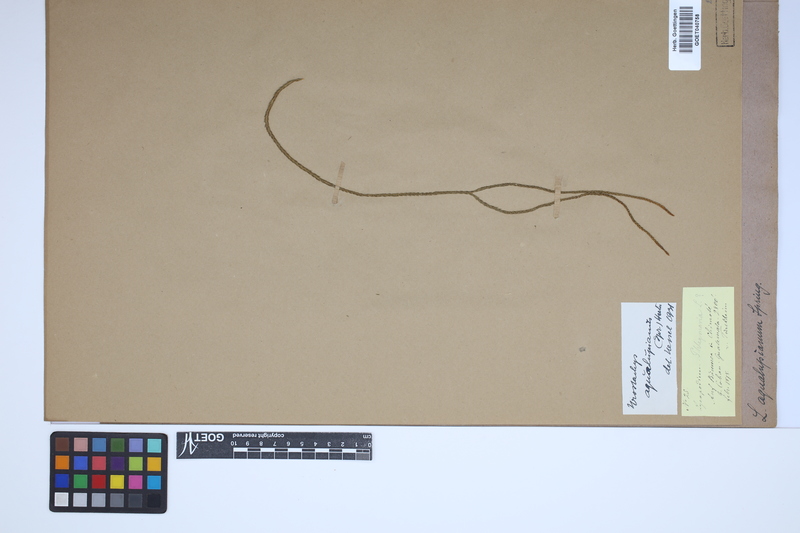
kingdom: Plantae
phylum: Tracheophyta
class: Lycopodiopsida
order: Lycopodiales
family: Lycopodiaceae
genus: Phlegmariurus
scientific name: Phlegmariurus aqualupianus
